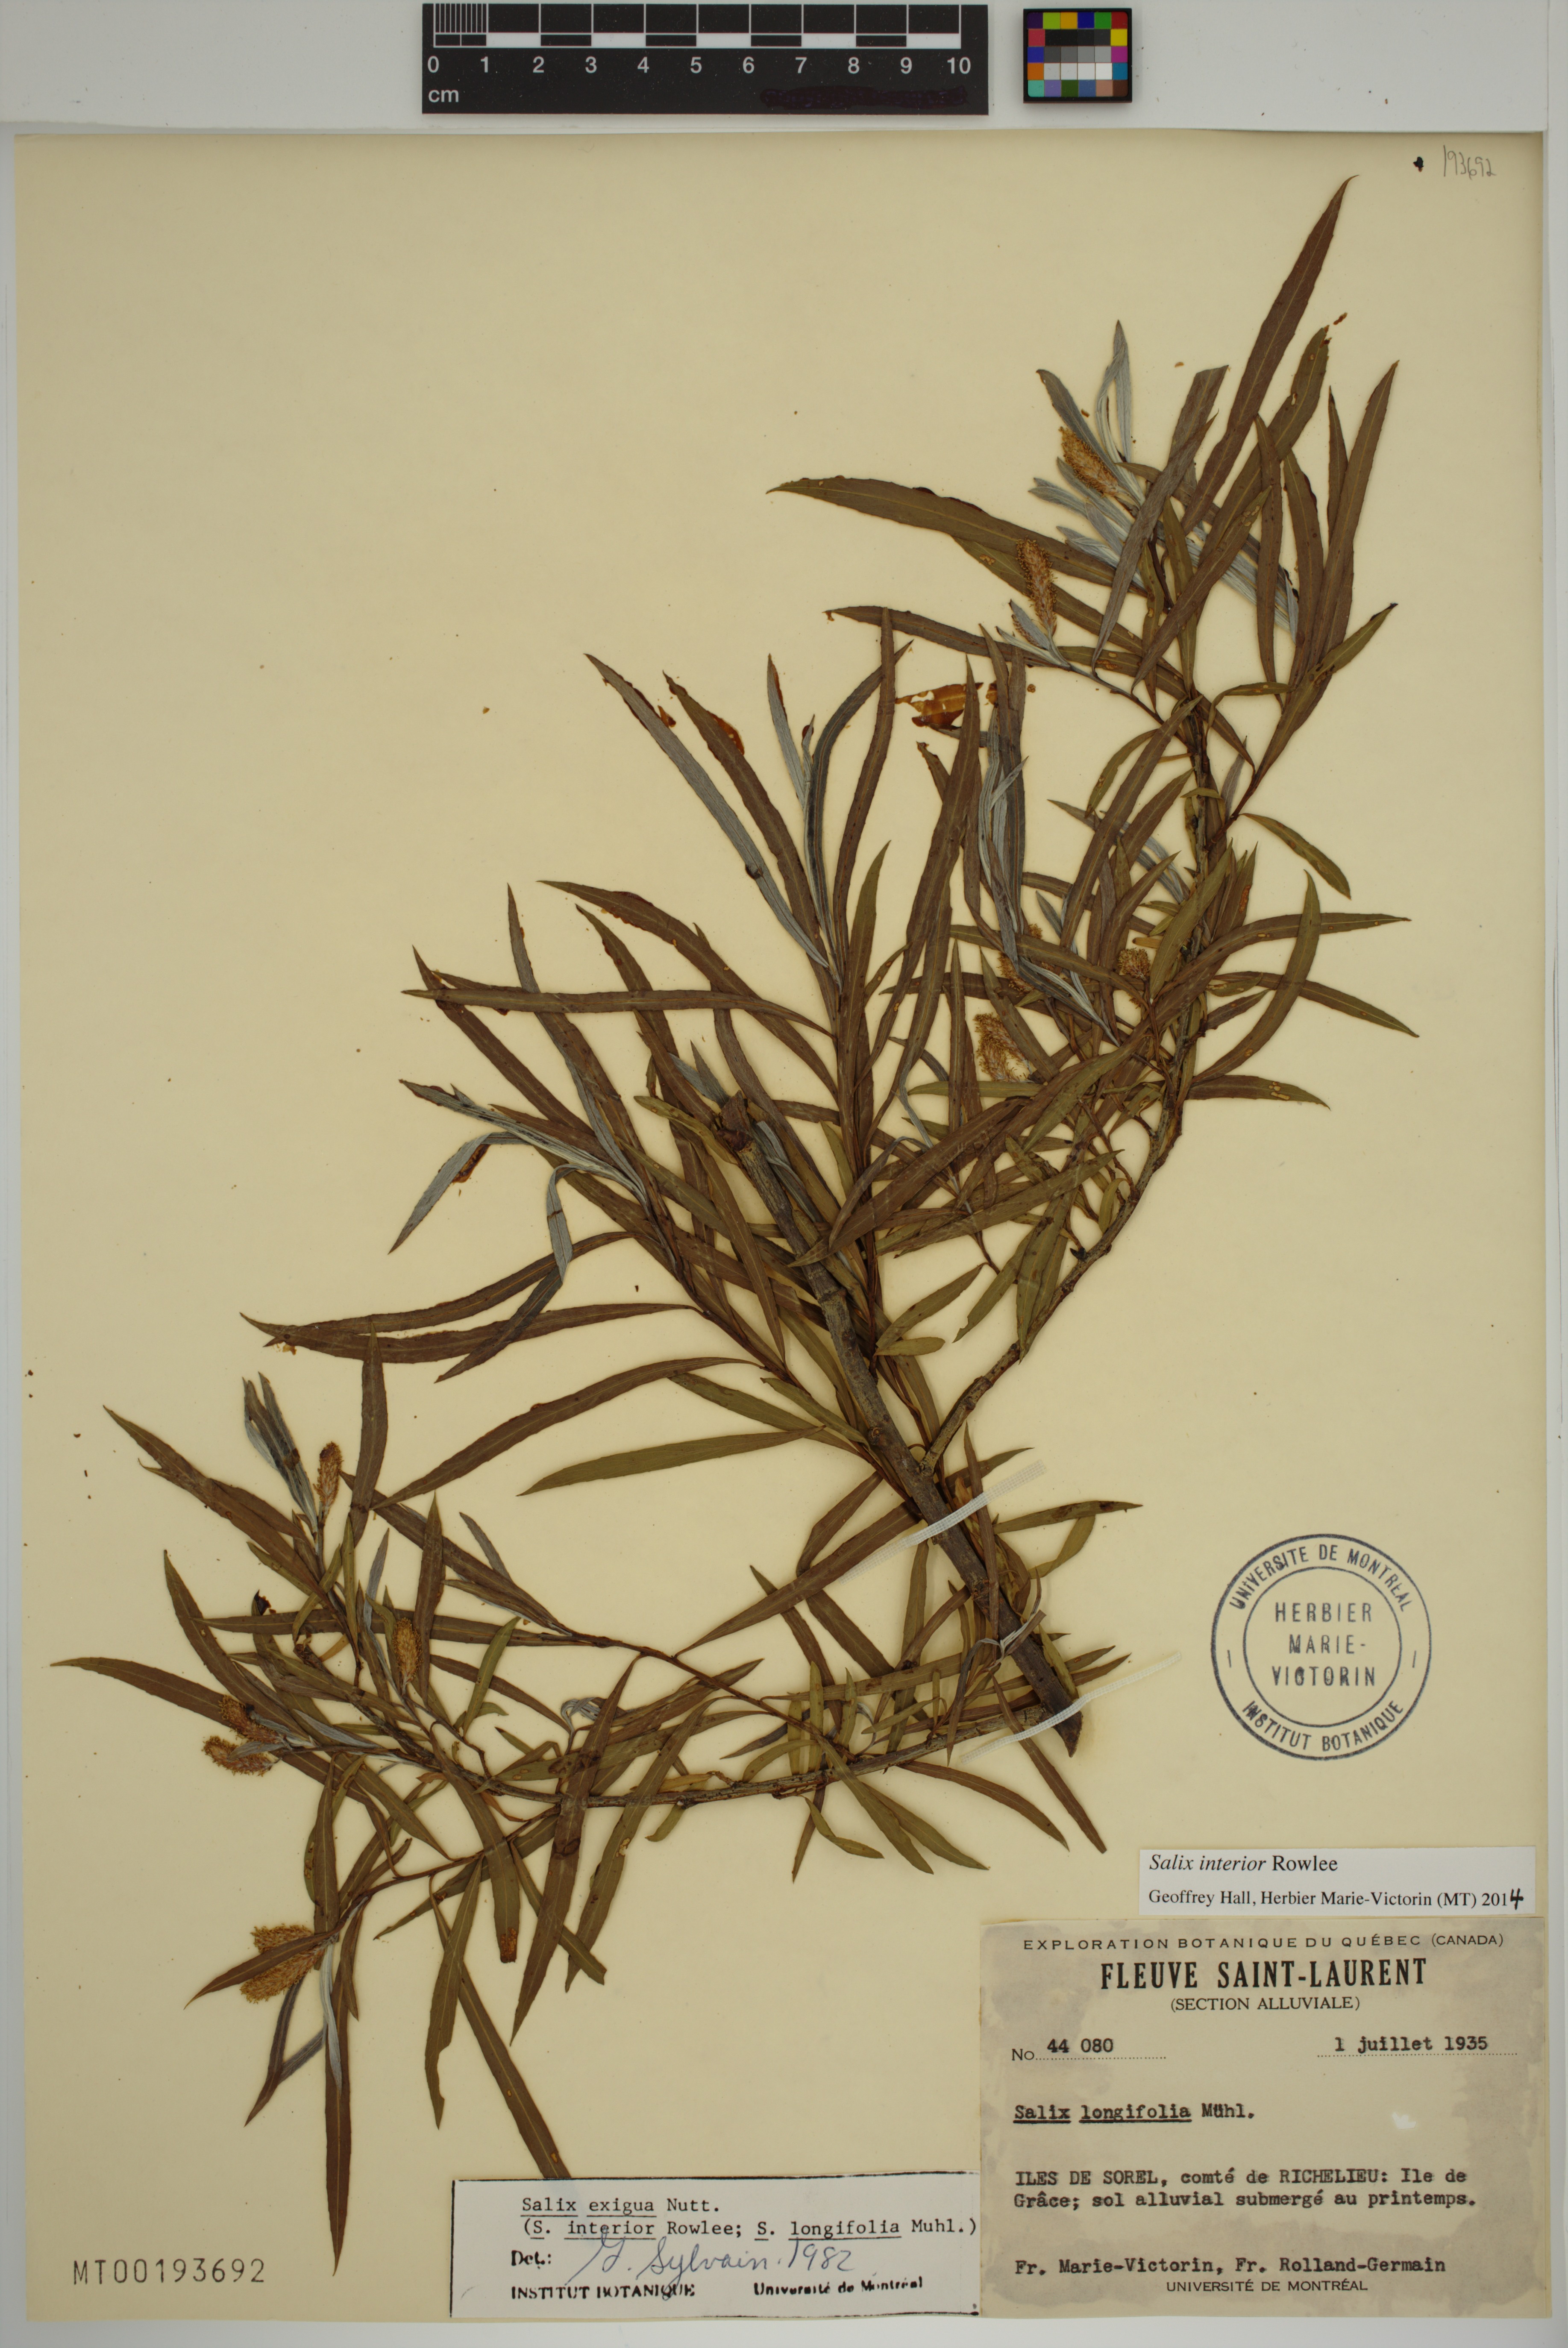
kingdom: Plantae
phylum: Tracheophyta
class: Magnoliopsida
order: Malpighiales
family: Salicaceae
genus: Salix
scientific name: Salix interior
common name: Sandbar willow
